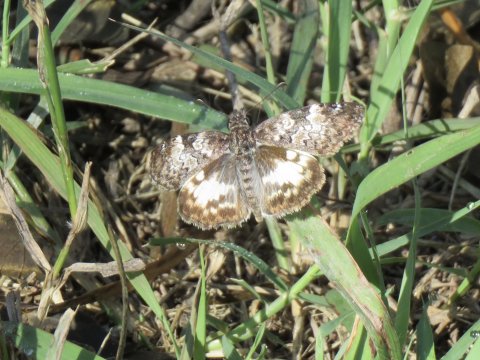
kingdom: Animalia
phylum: Arthropoda
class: Insecta
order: Lepidoptera
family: Hesperiidae
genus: Chiomara
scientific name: Chiomara asychis
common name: White-patched Skipper
